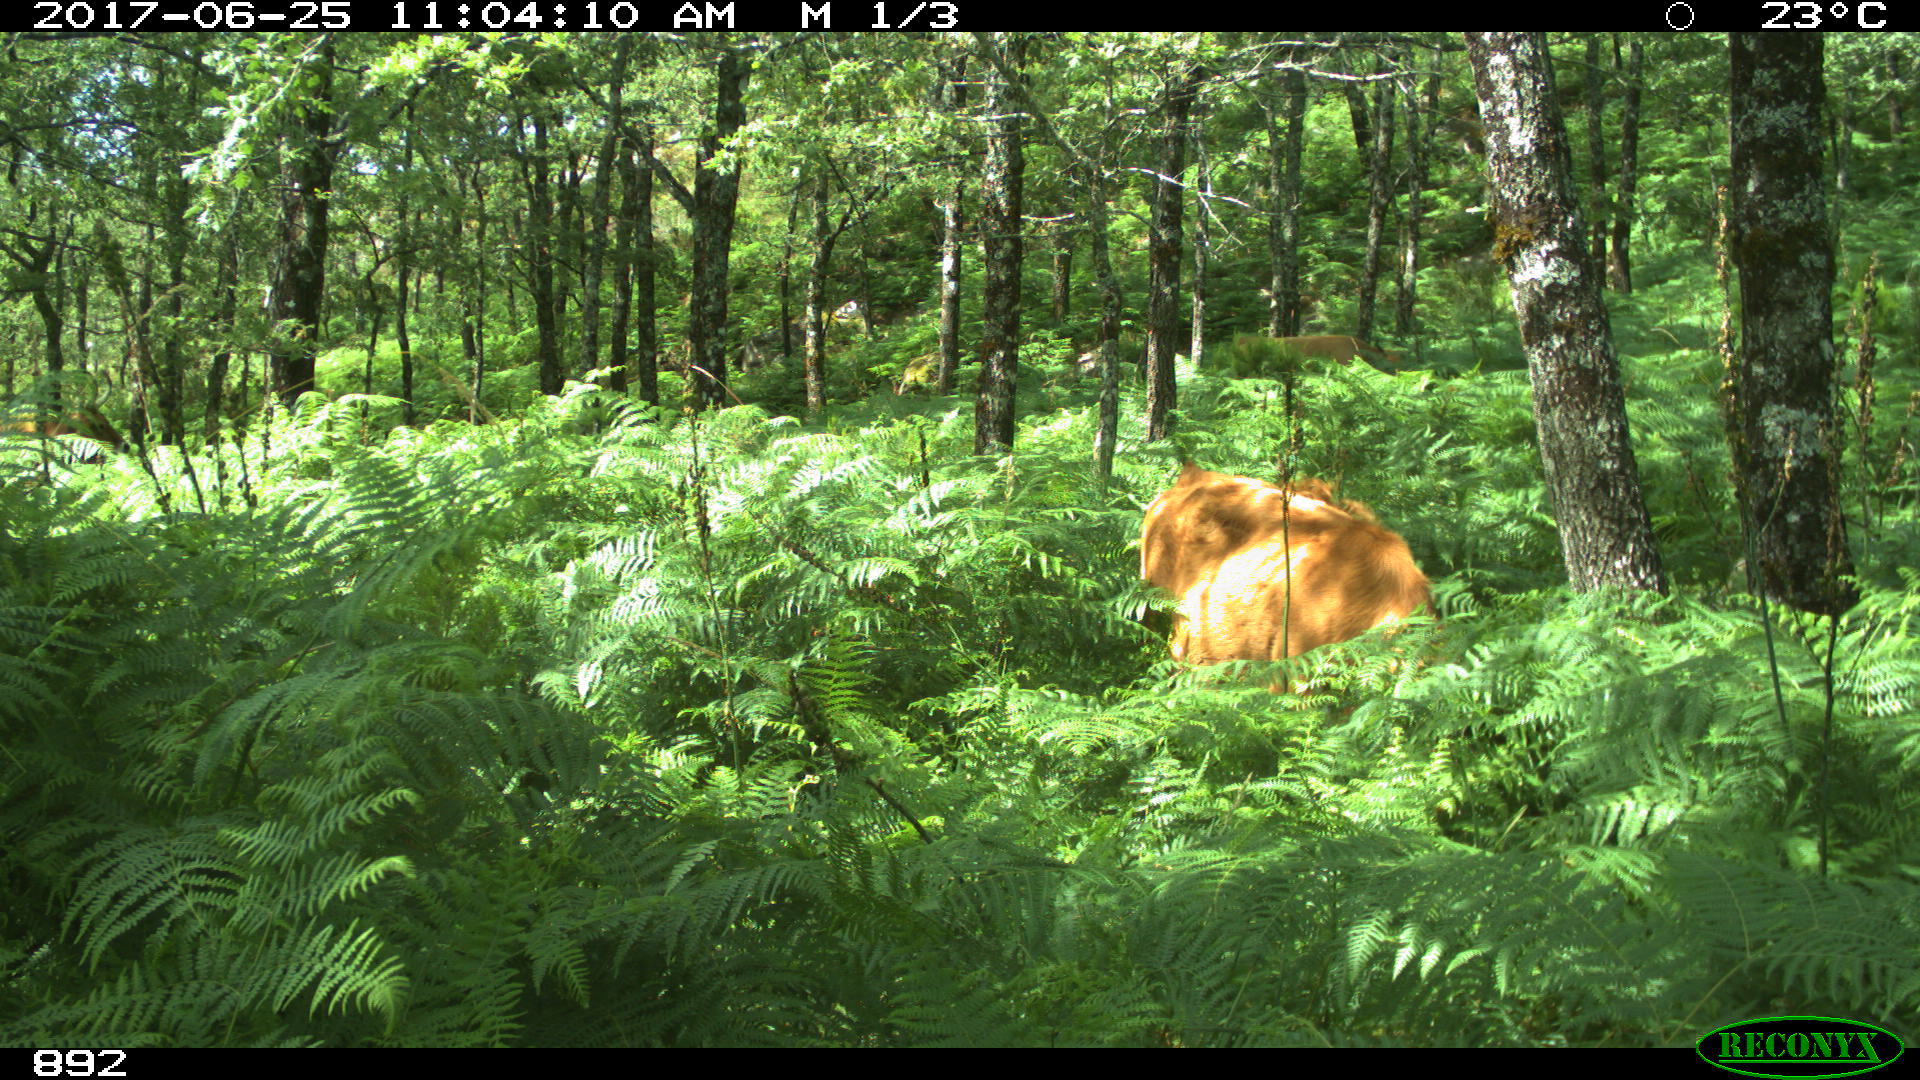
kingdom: Animalia
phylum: Chordata
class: Mammalia
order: Artiodactyla
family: Bovidae
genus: Bos
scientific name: Bos taurus
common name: Domesticated cattle
